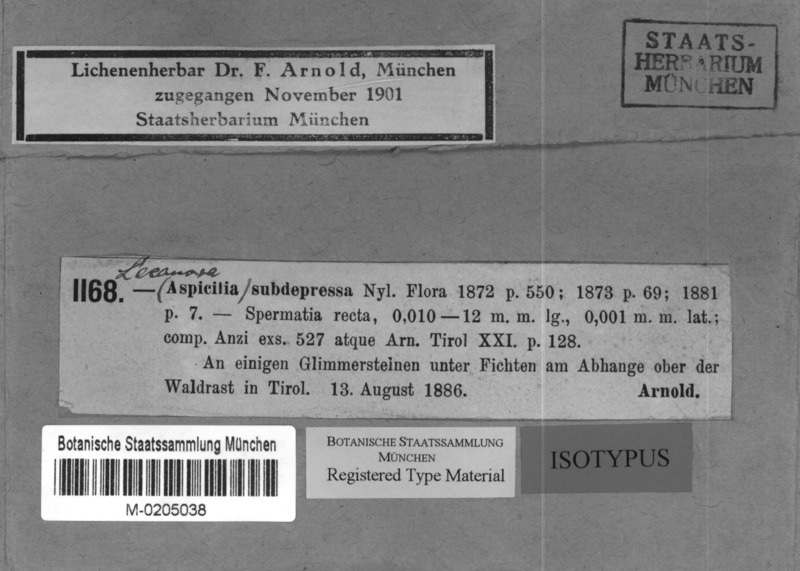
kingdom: Fungi
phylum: Ascomycota
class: Lecanoromycetes
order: Pertusariales
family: Megasporaceae
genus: Sagedia
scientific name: Sagedia zonata
